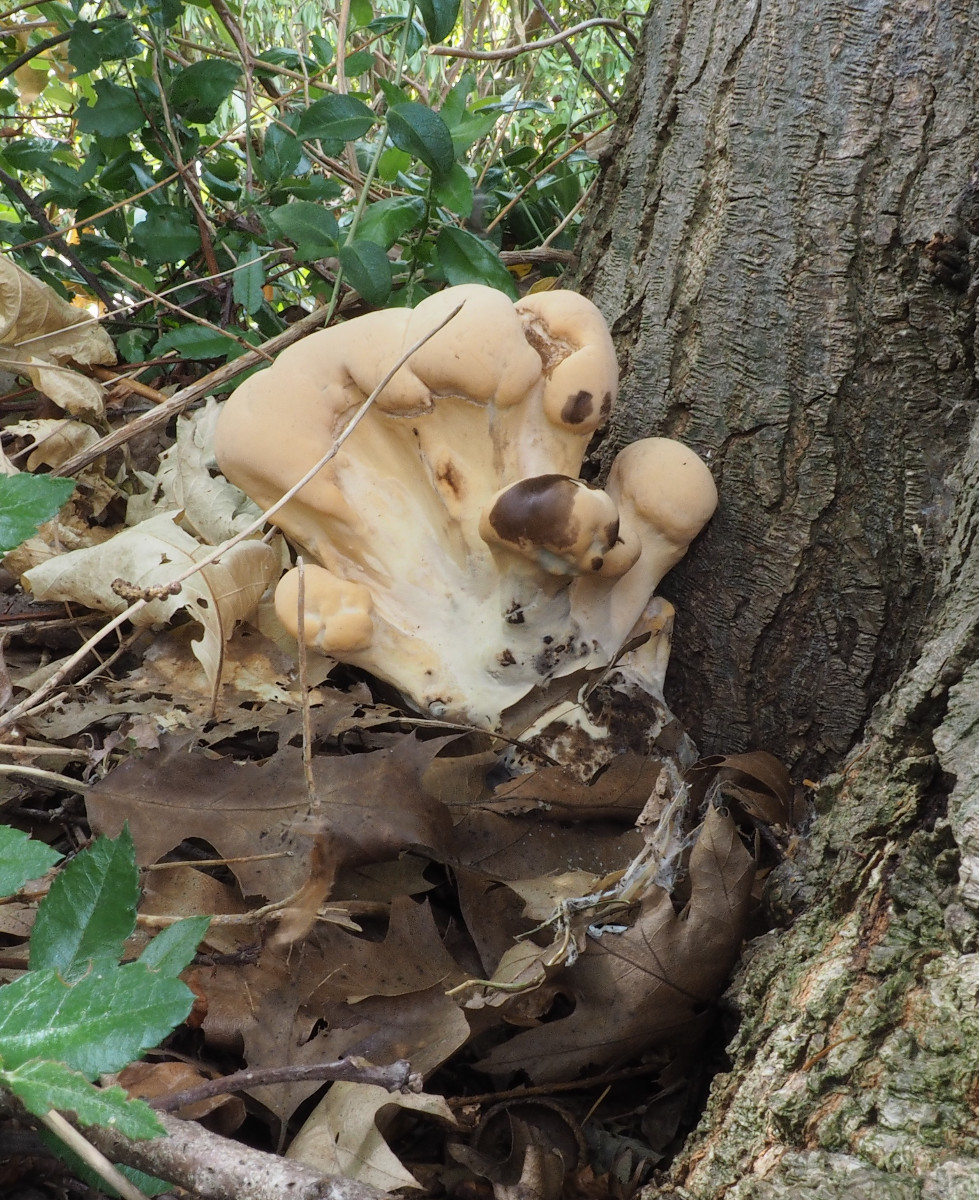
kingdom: Fungi
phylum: Basidiomycota
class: Agaricomycetes
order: Polyporales
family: Meripilaceae
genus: Meripilus
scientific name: Meripilus giganteus
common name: kæmpeporesvamp
